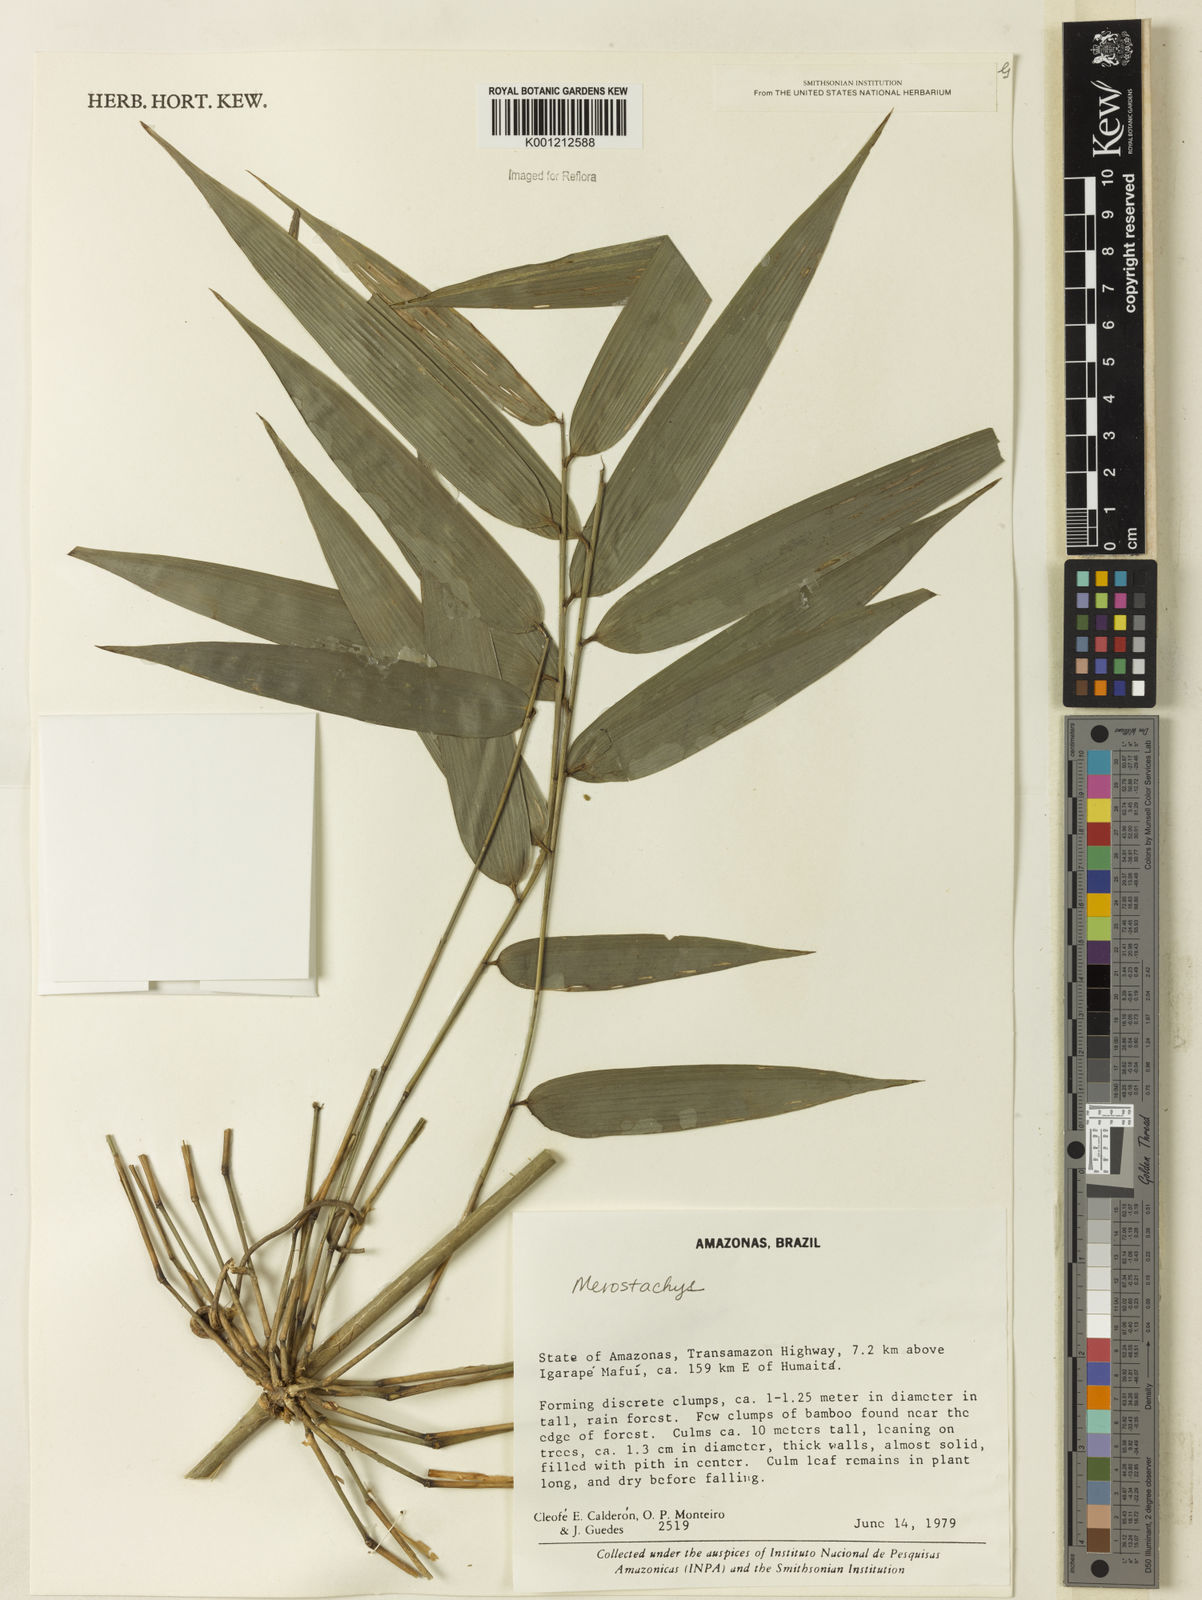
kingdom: Plantae
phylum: Tracheophyta
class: Liliopsida
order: Poales
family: Poaceae
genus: Merostachys
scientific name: Merostachys
